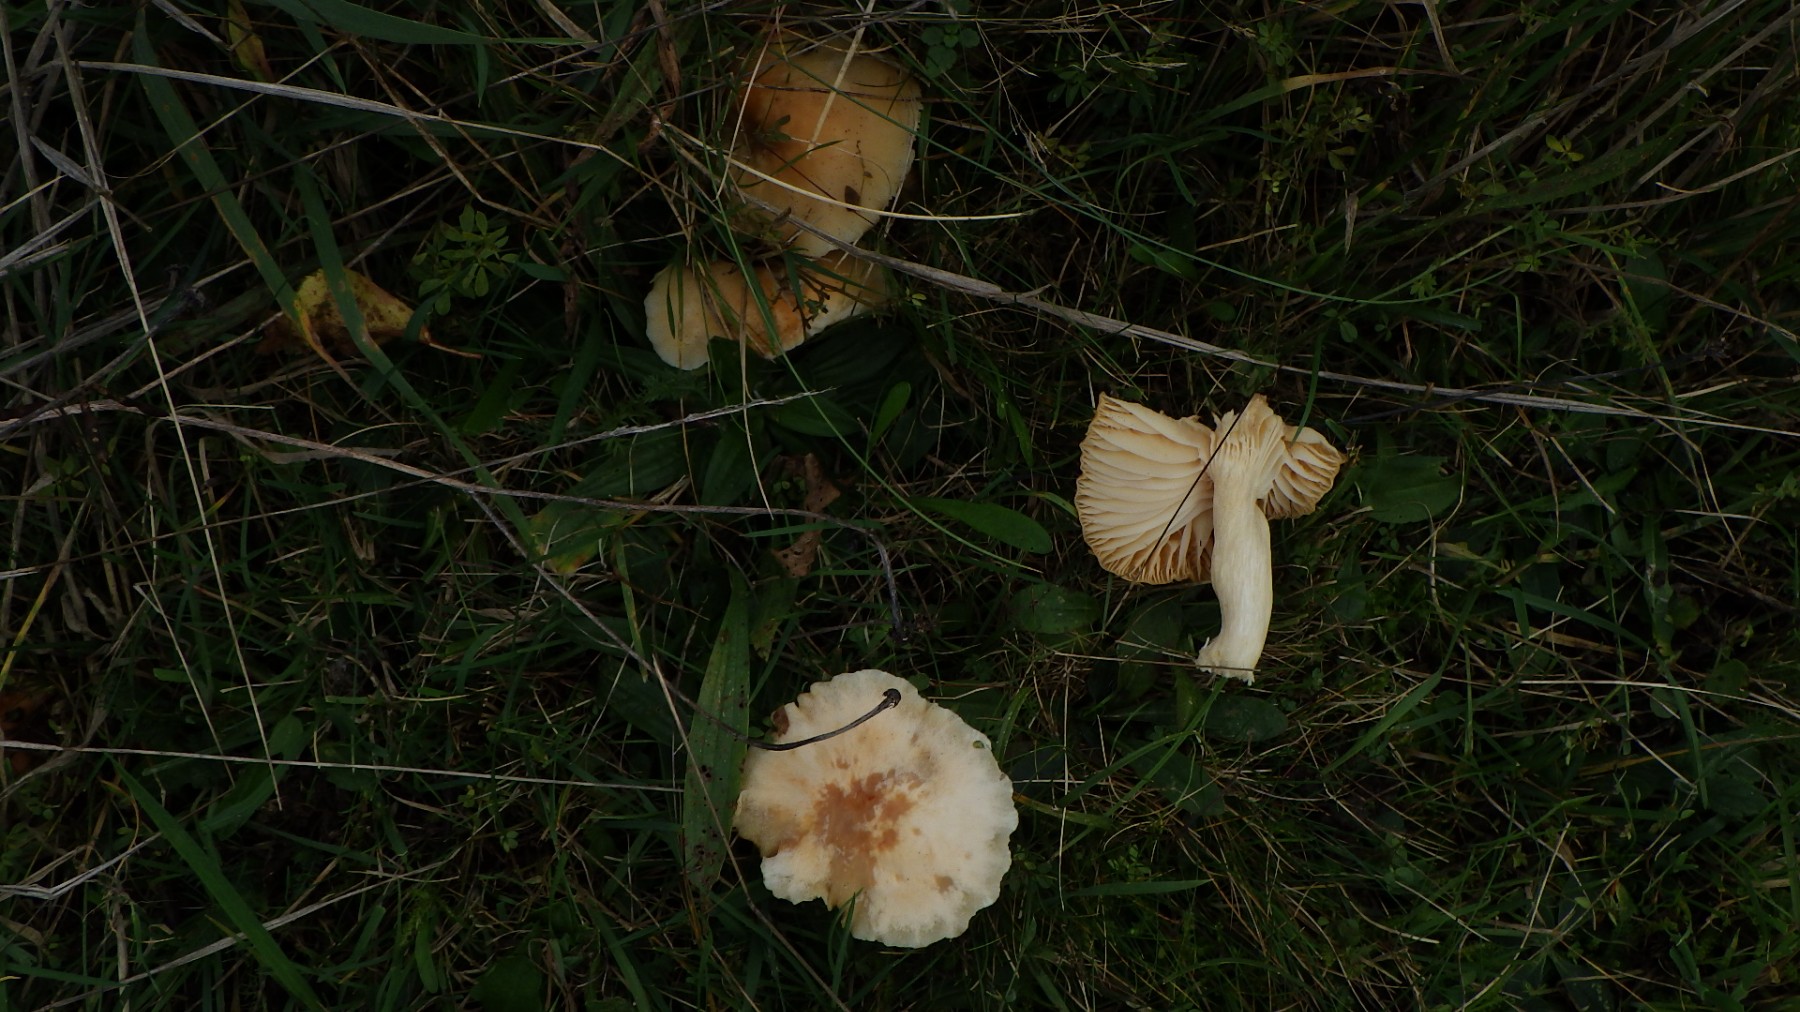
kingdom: Fungi
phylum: Basidiomycota
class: Agaricomycetes
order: Agaricales
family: Hygrophoraceae
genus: Cuphophyllus
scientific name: Cuphophyllus pratensis
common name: eng-vokshat
